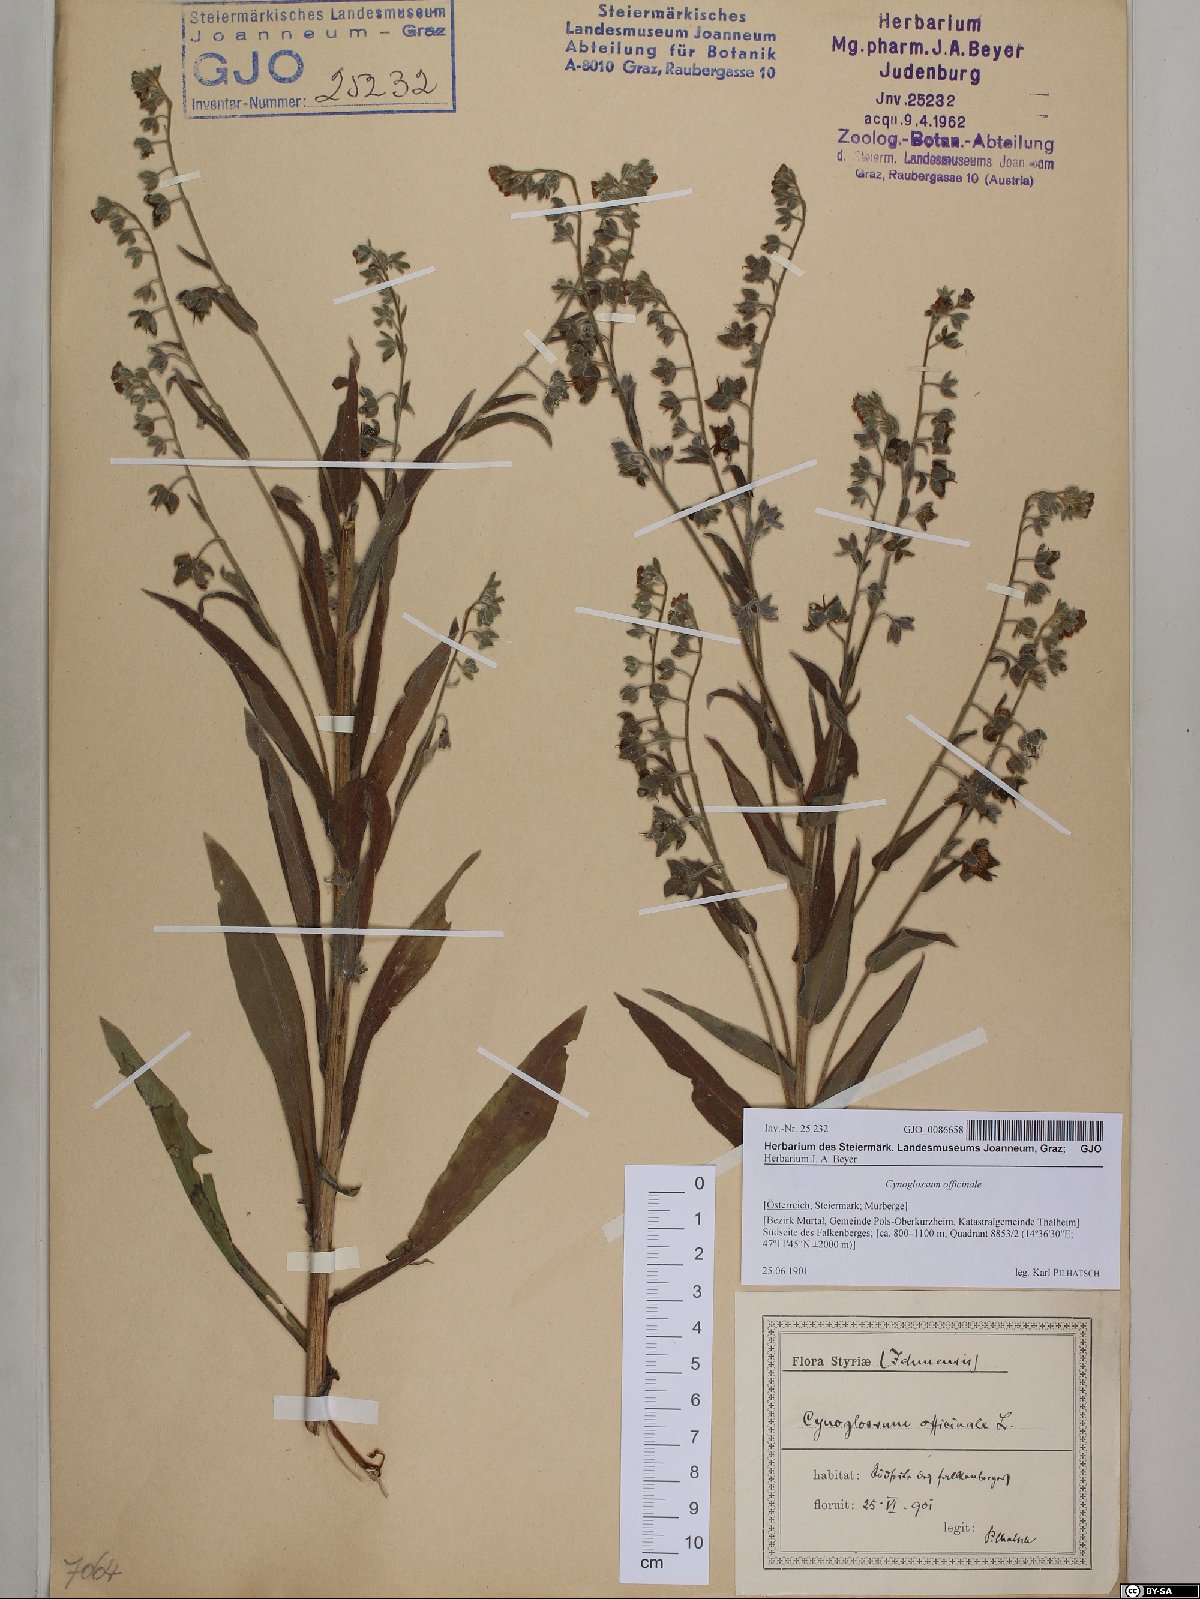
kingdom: Plantae
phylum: Tracheophyta
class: Magnoliopsida
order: Boraginales
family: Boraginaceae
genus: Cynoglossum
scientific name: Cynoglossum officinale
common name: Hound's-tongue
